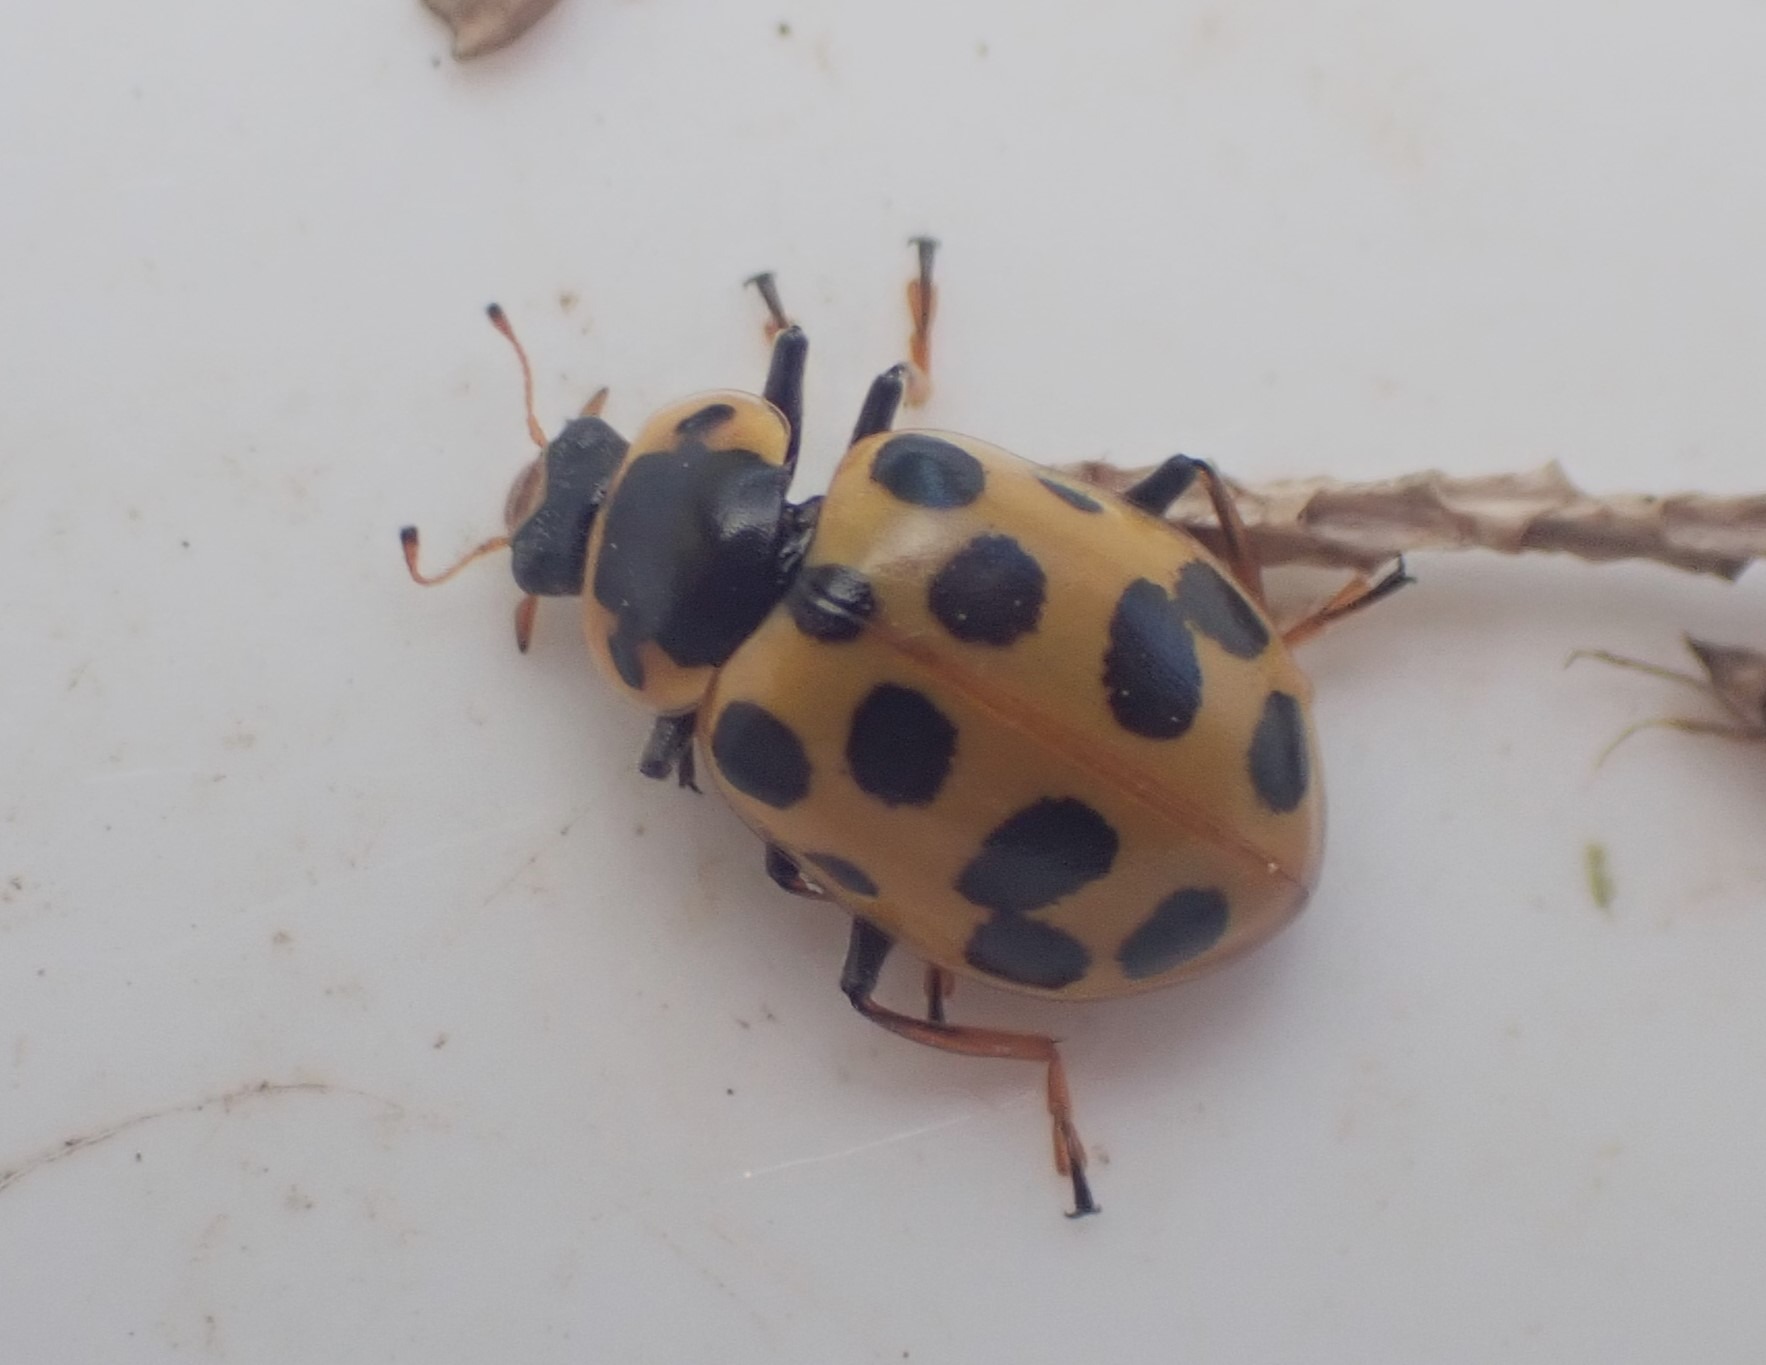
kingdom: Animalia
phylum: Arthropoda
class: Insecta
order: Coleoptera
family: Coccinellidae
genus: Hippodamia
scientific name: Hippodamia tredecimpunctata
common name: Trettenplettet mariehøne
